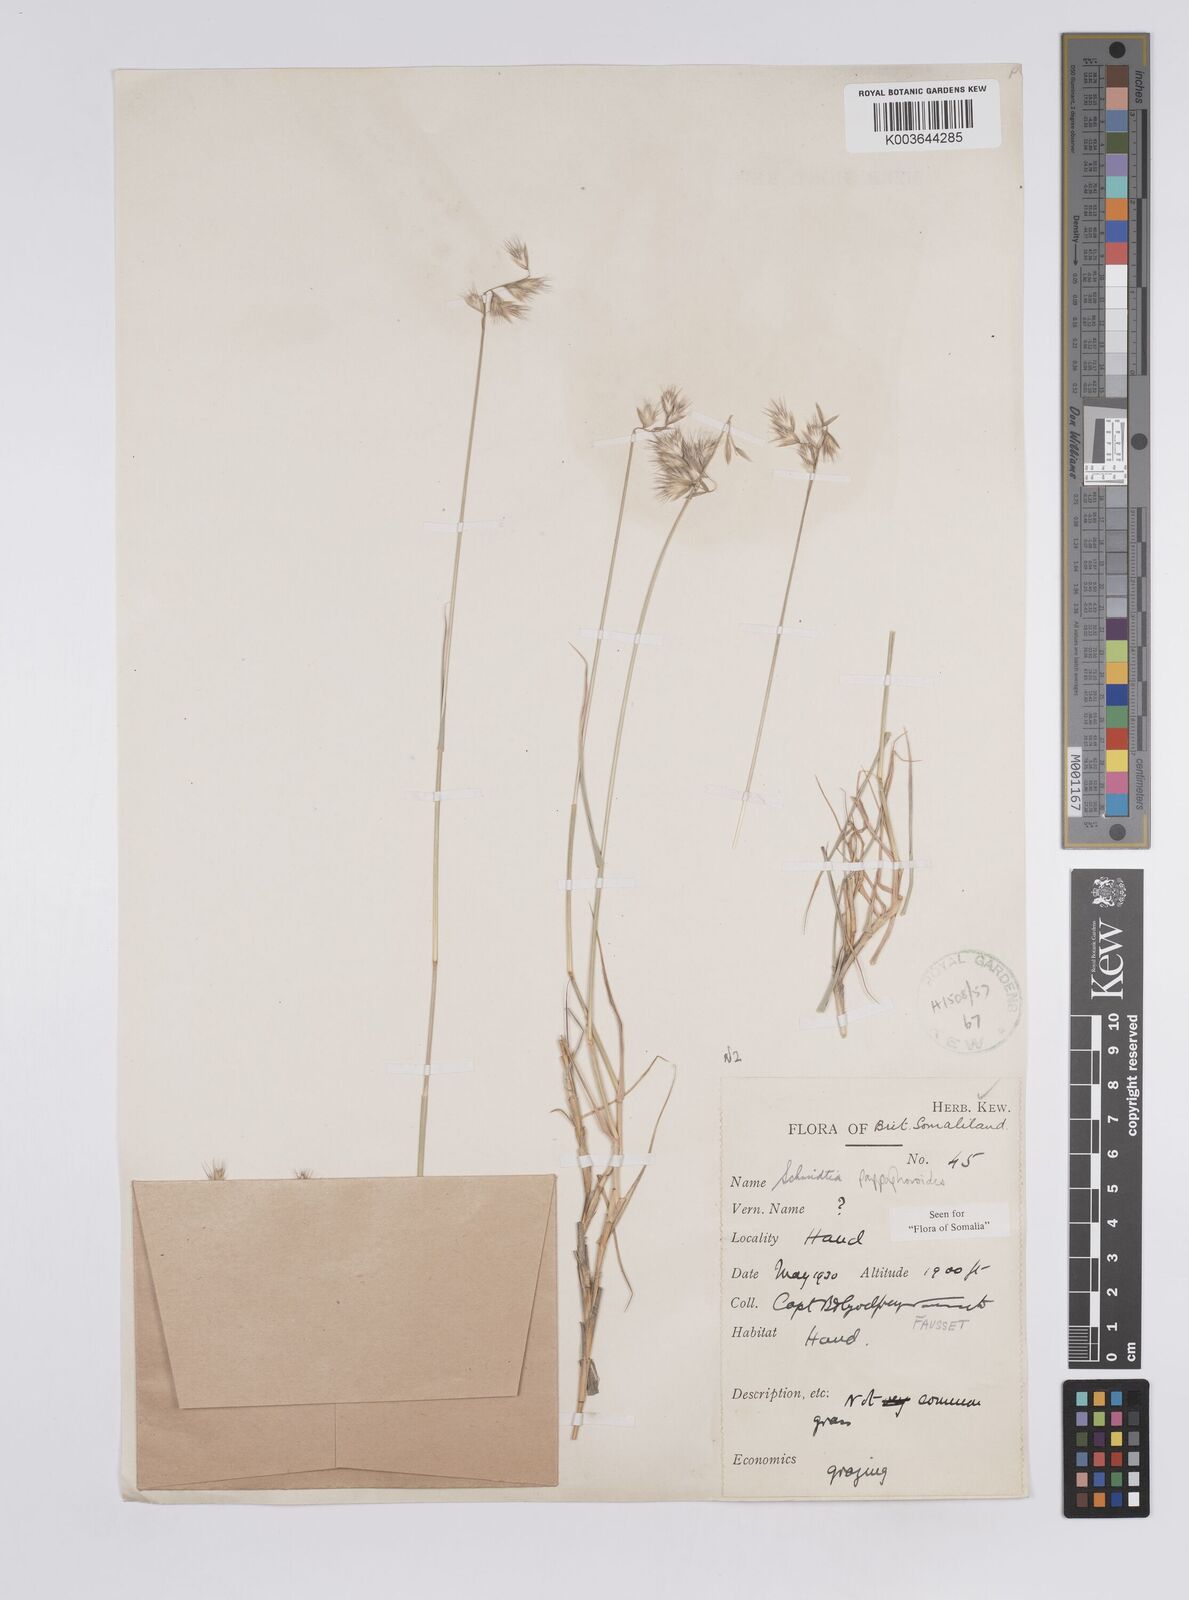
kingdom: Plantae
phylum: Tracheophyta
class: Liliopsida
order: Poales
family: Poaceae
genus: Schmidtia
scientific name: Schmidtia pappophoroides
